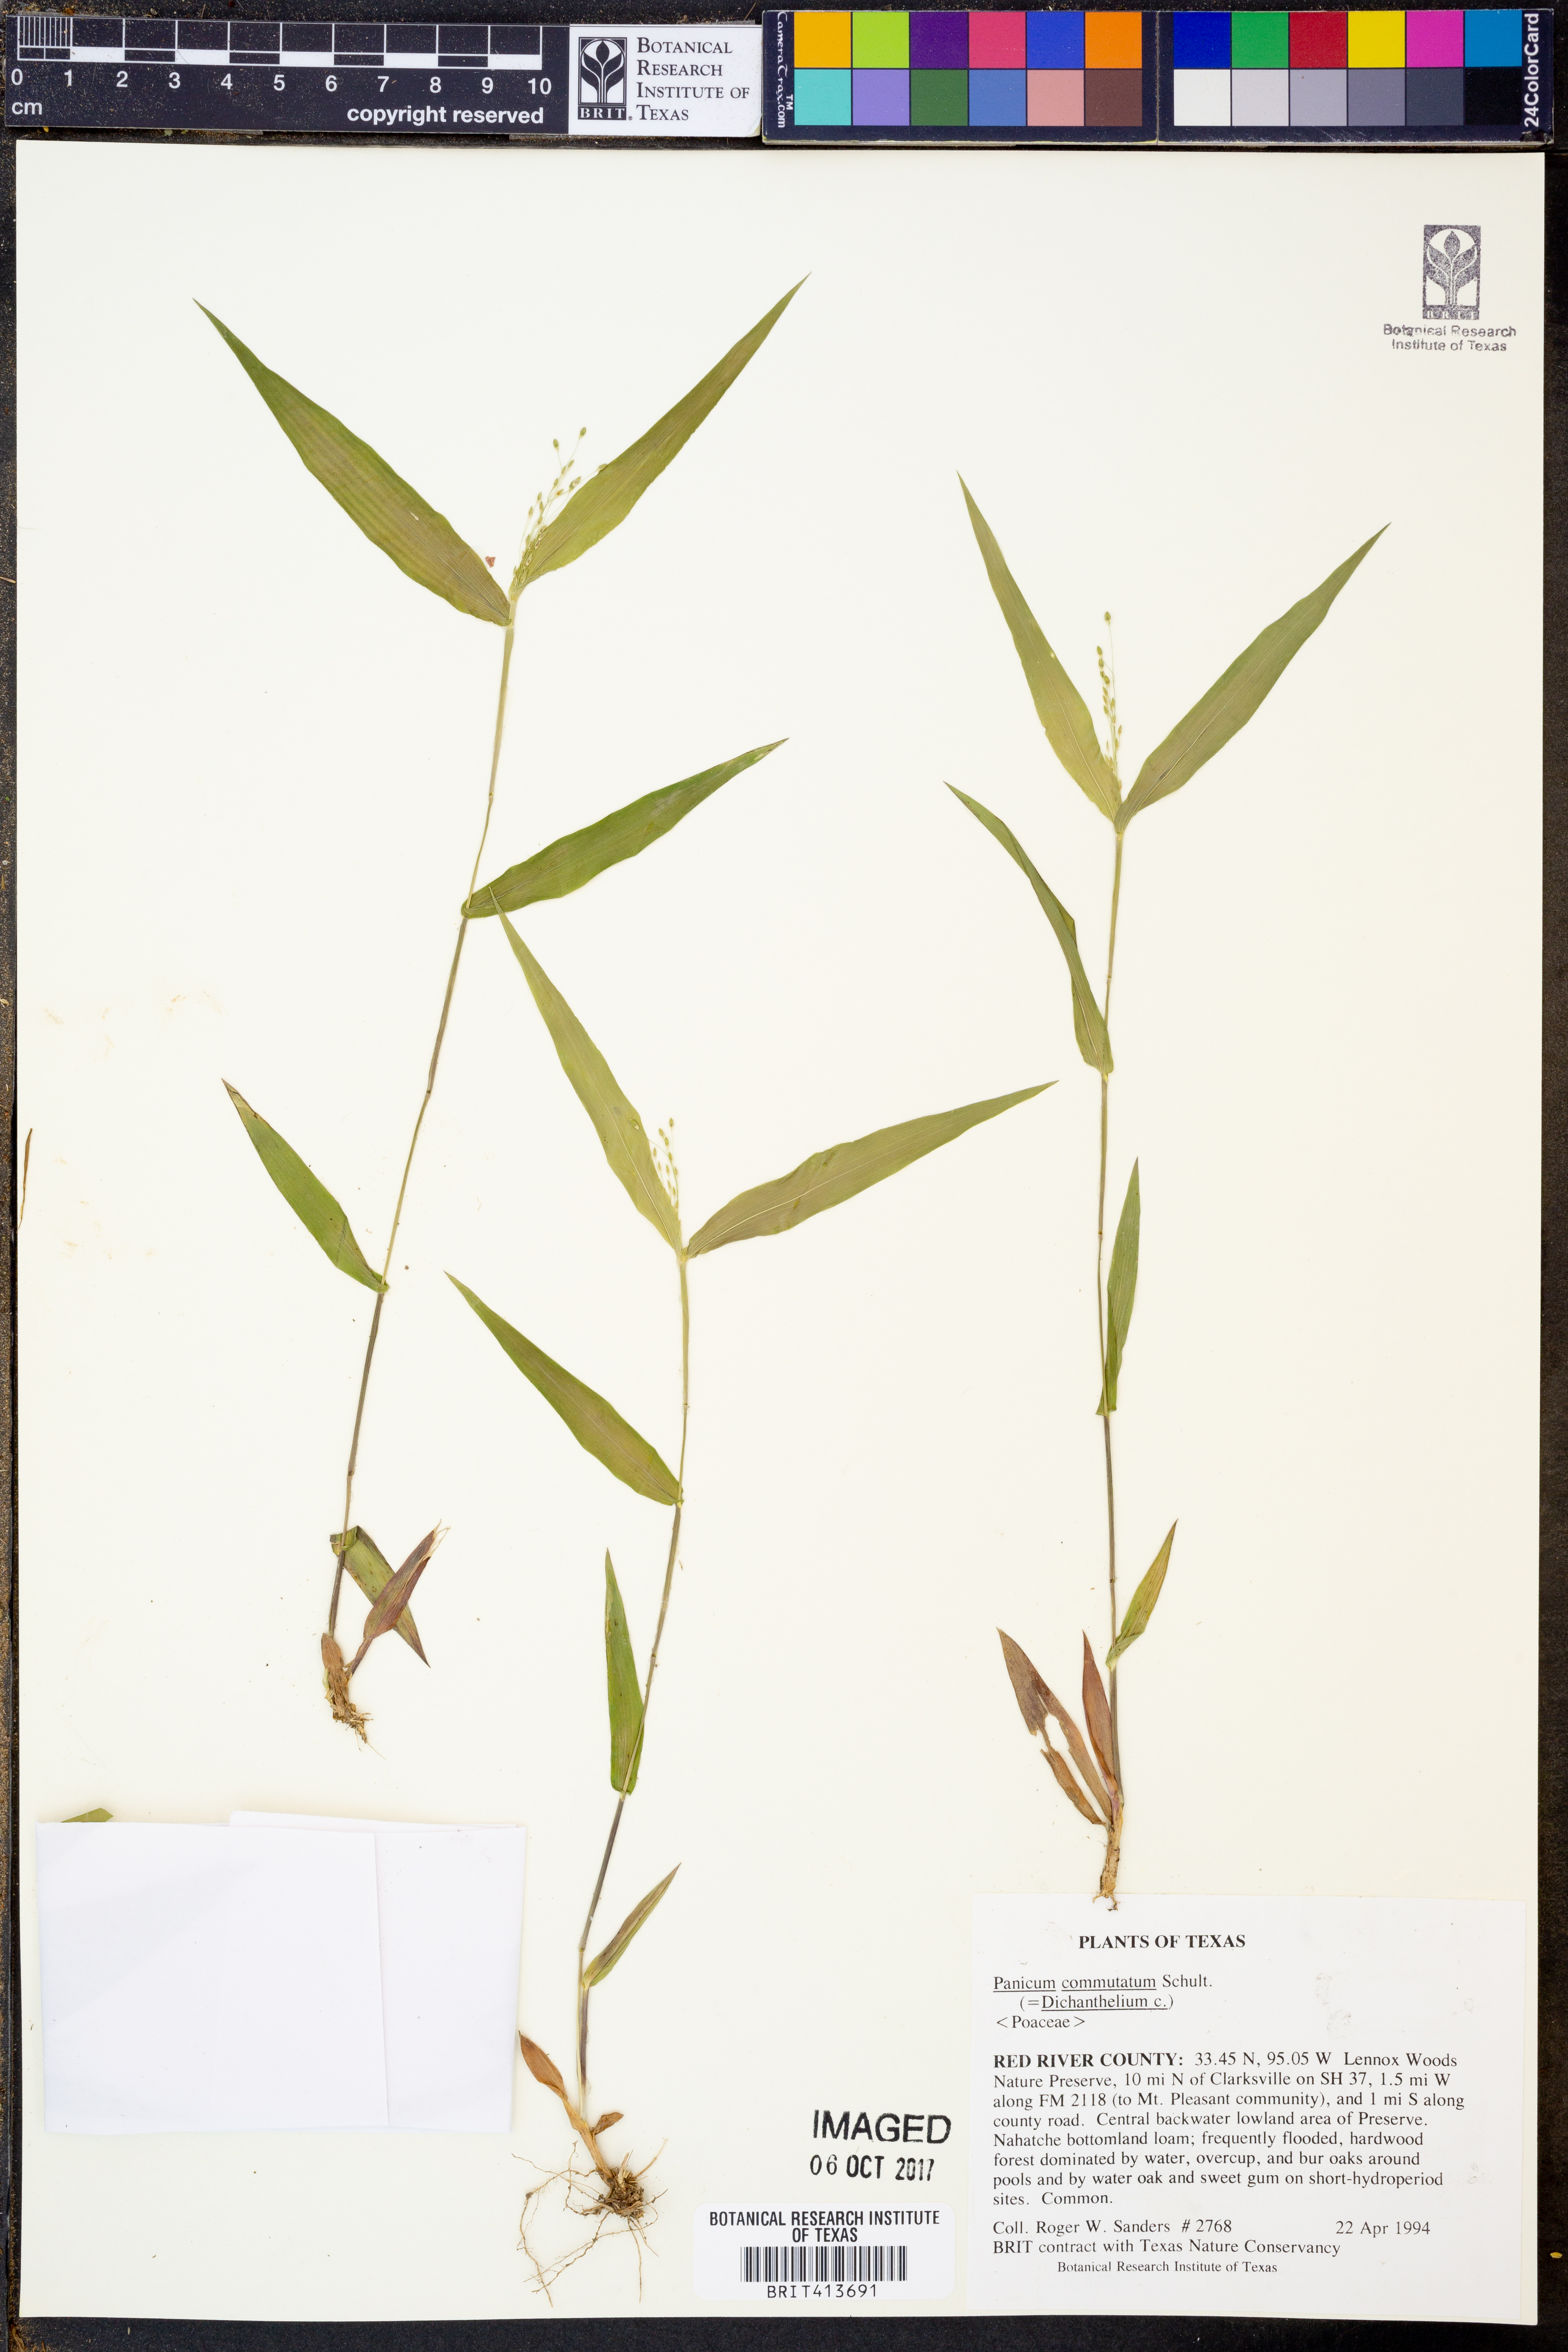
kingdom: Plantae
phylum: Tracheophyta
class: Liliopsida
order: Poales
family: Poaceae
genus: Dichanthelium
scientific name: Dichanthelium commutatum
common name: Variable witchgrass
